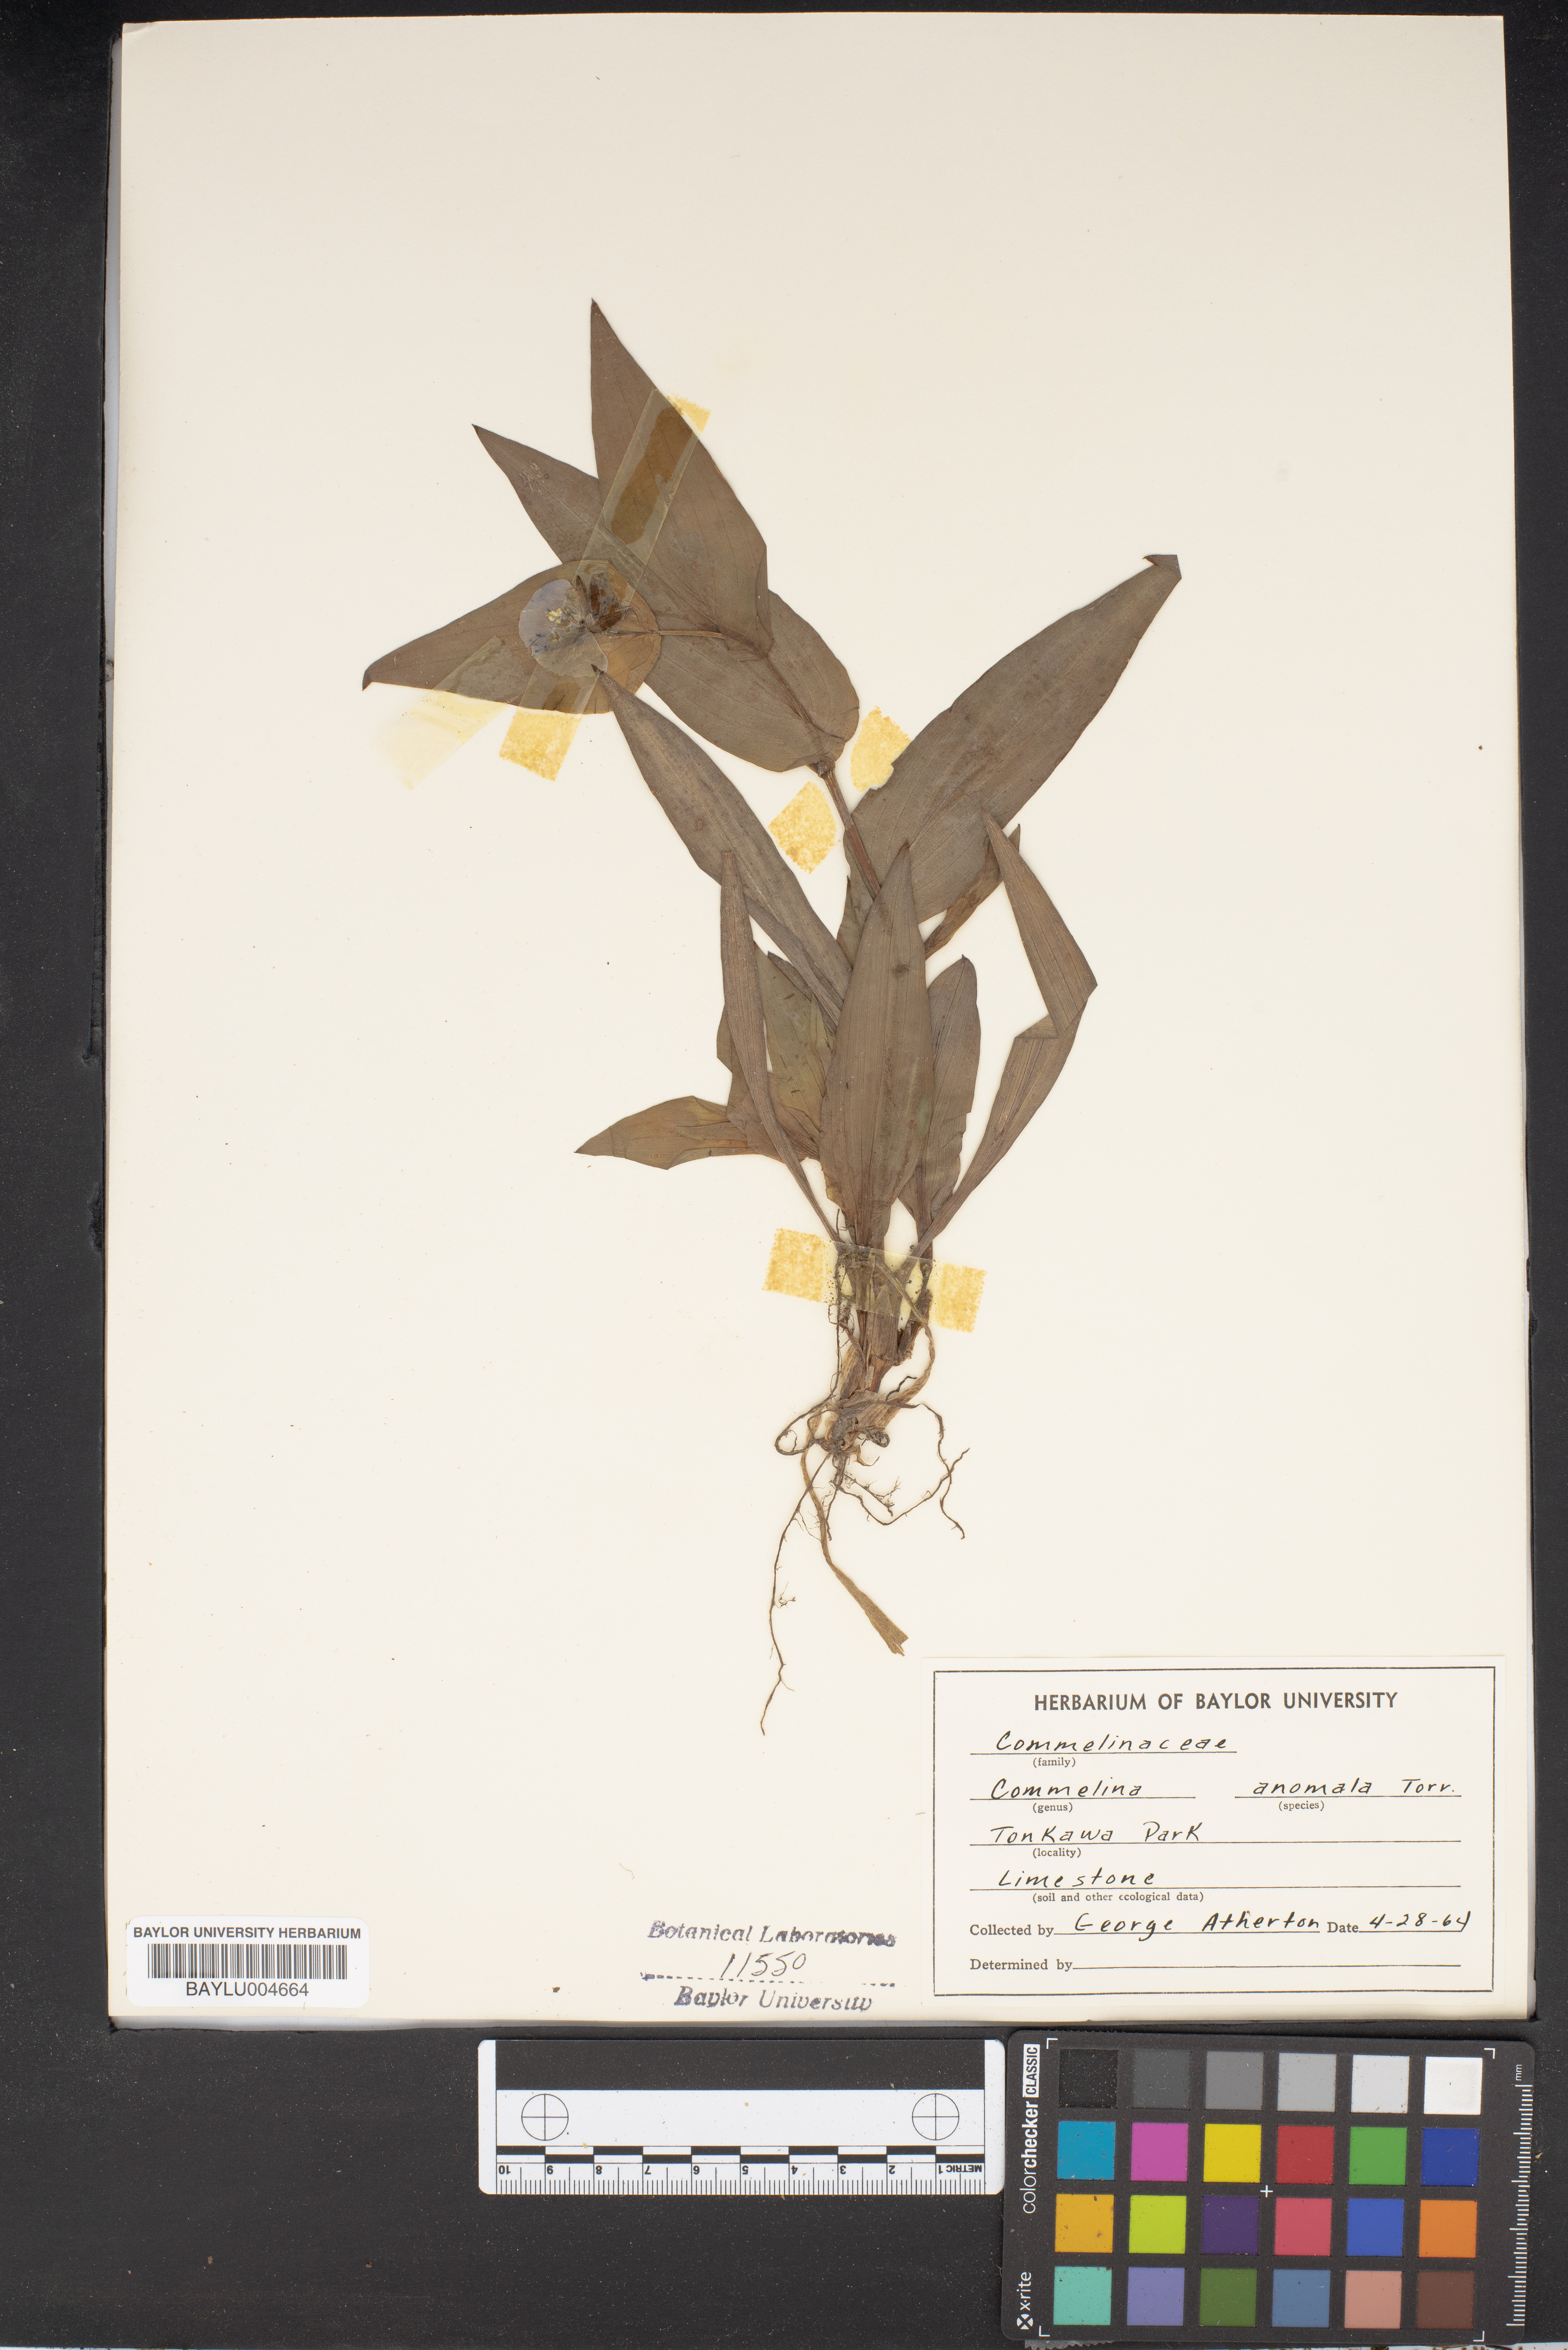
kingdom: Plantae
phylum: Tracheophyta
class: Liliopsida
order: Commelinales
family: Commelinaceae
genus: Tinantia
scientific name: Tinantia anomala
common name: False dayflower
